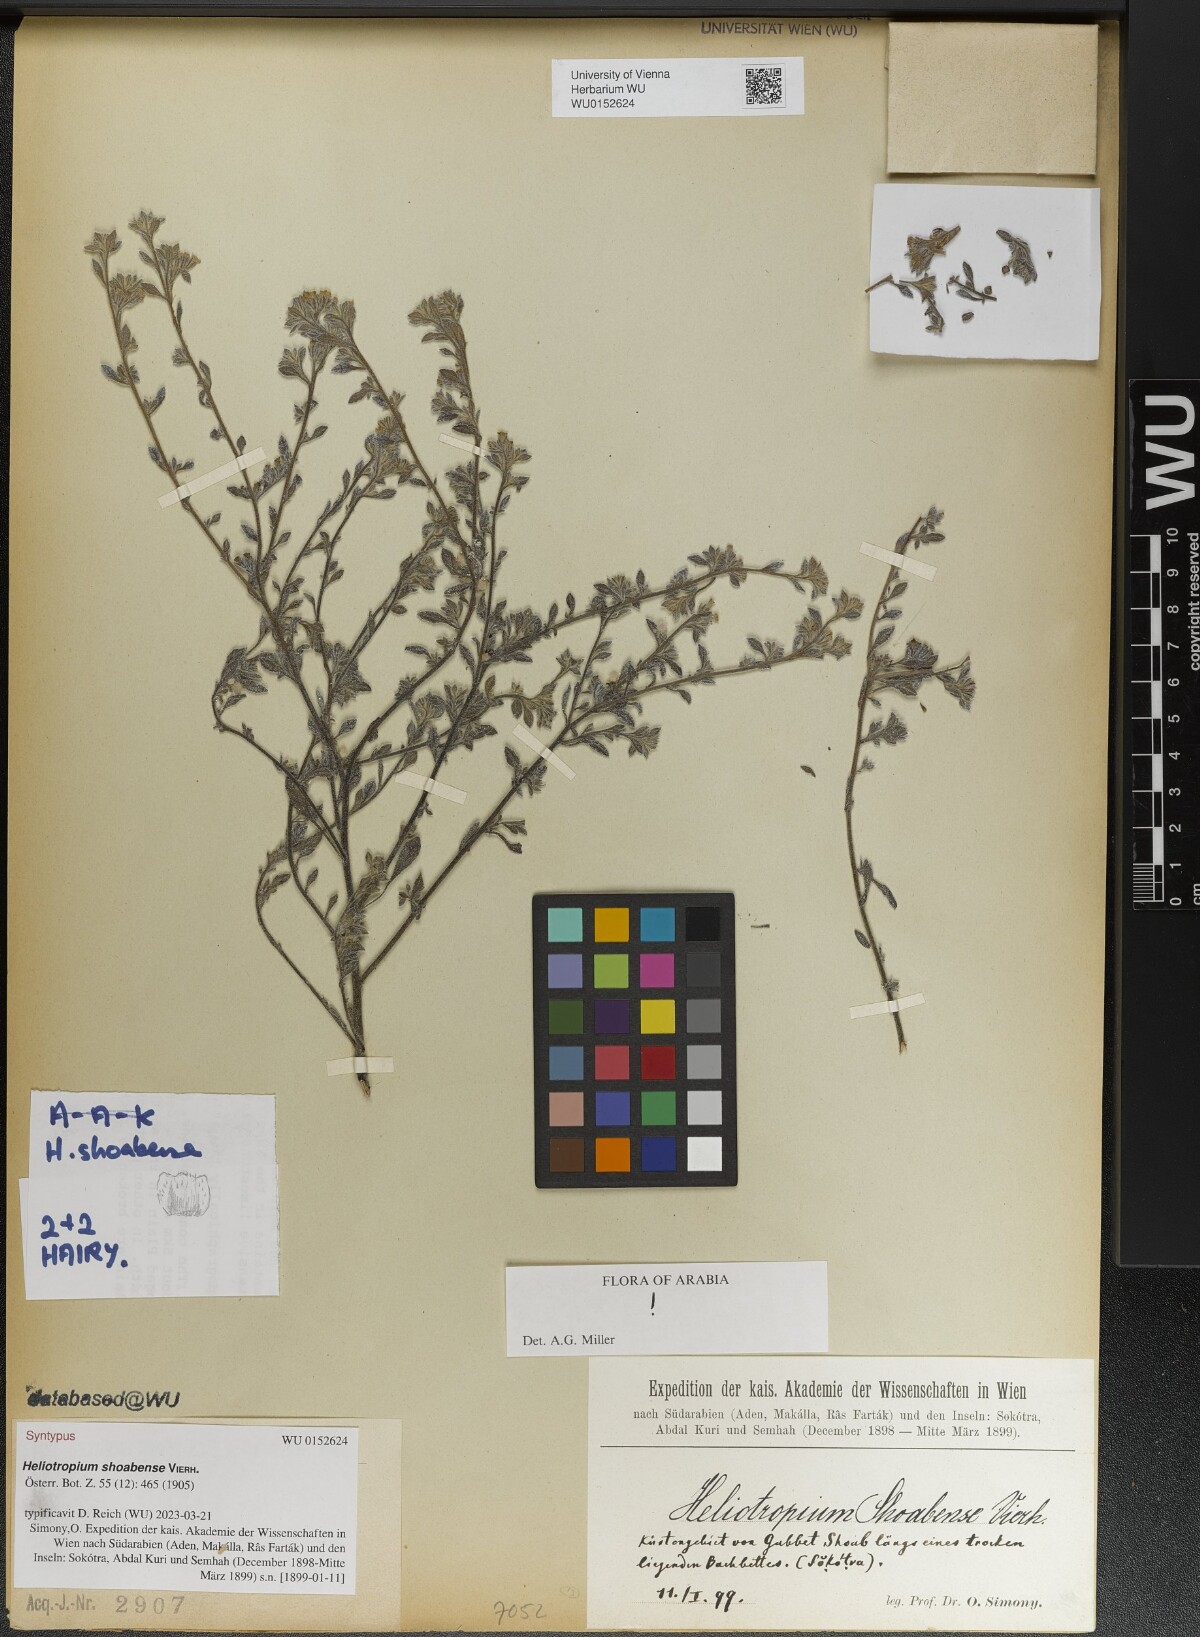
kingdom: Plantae
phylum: Tracheophyta
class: Magnoliopsida
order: Boraginales
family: Heliotropiaceae
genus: Heliotropium
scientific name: Heliotropium shoabense
